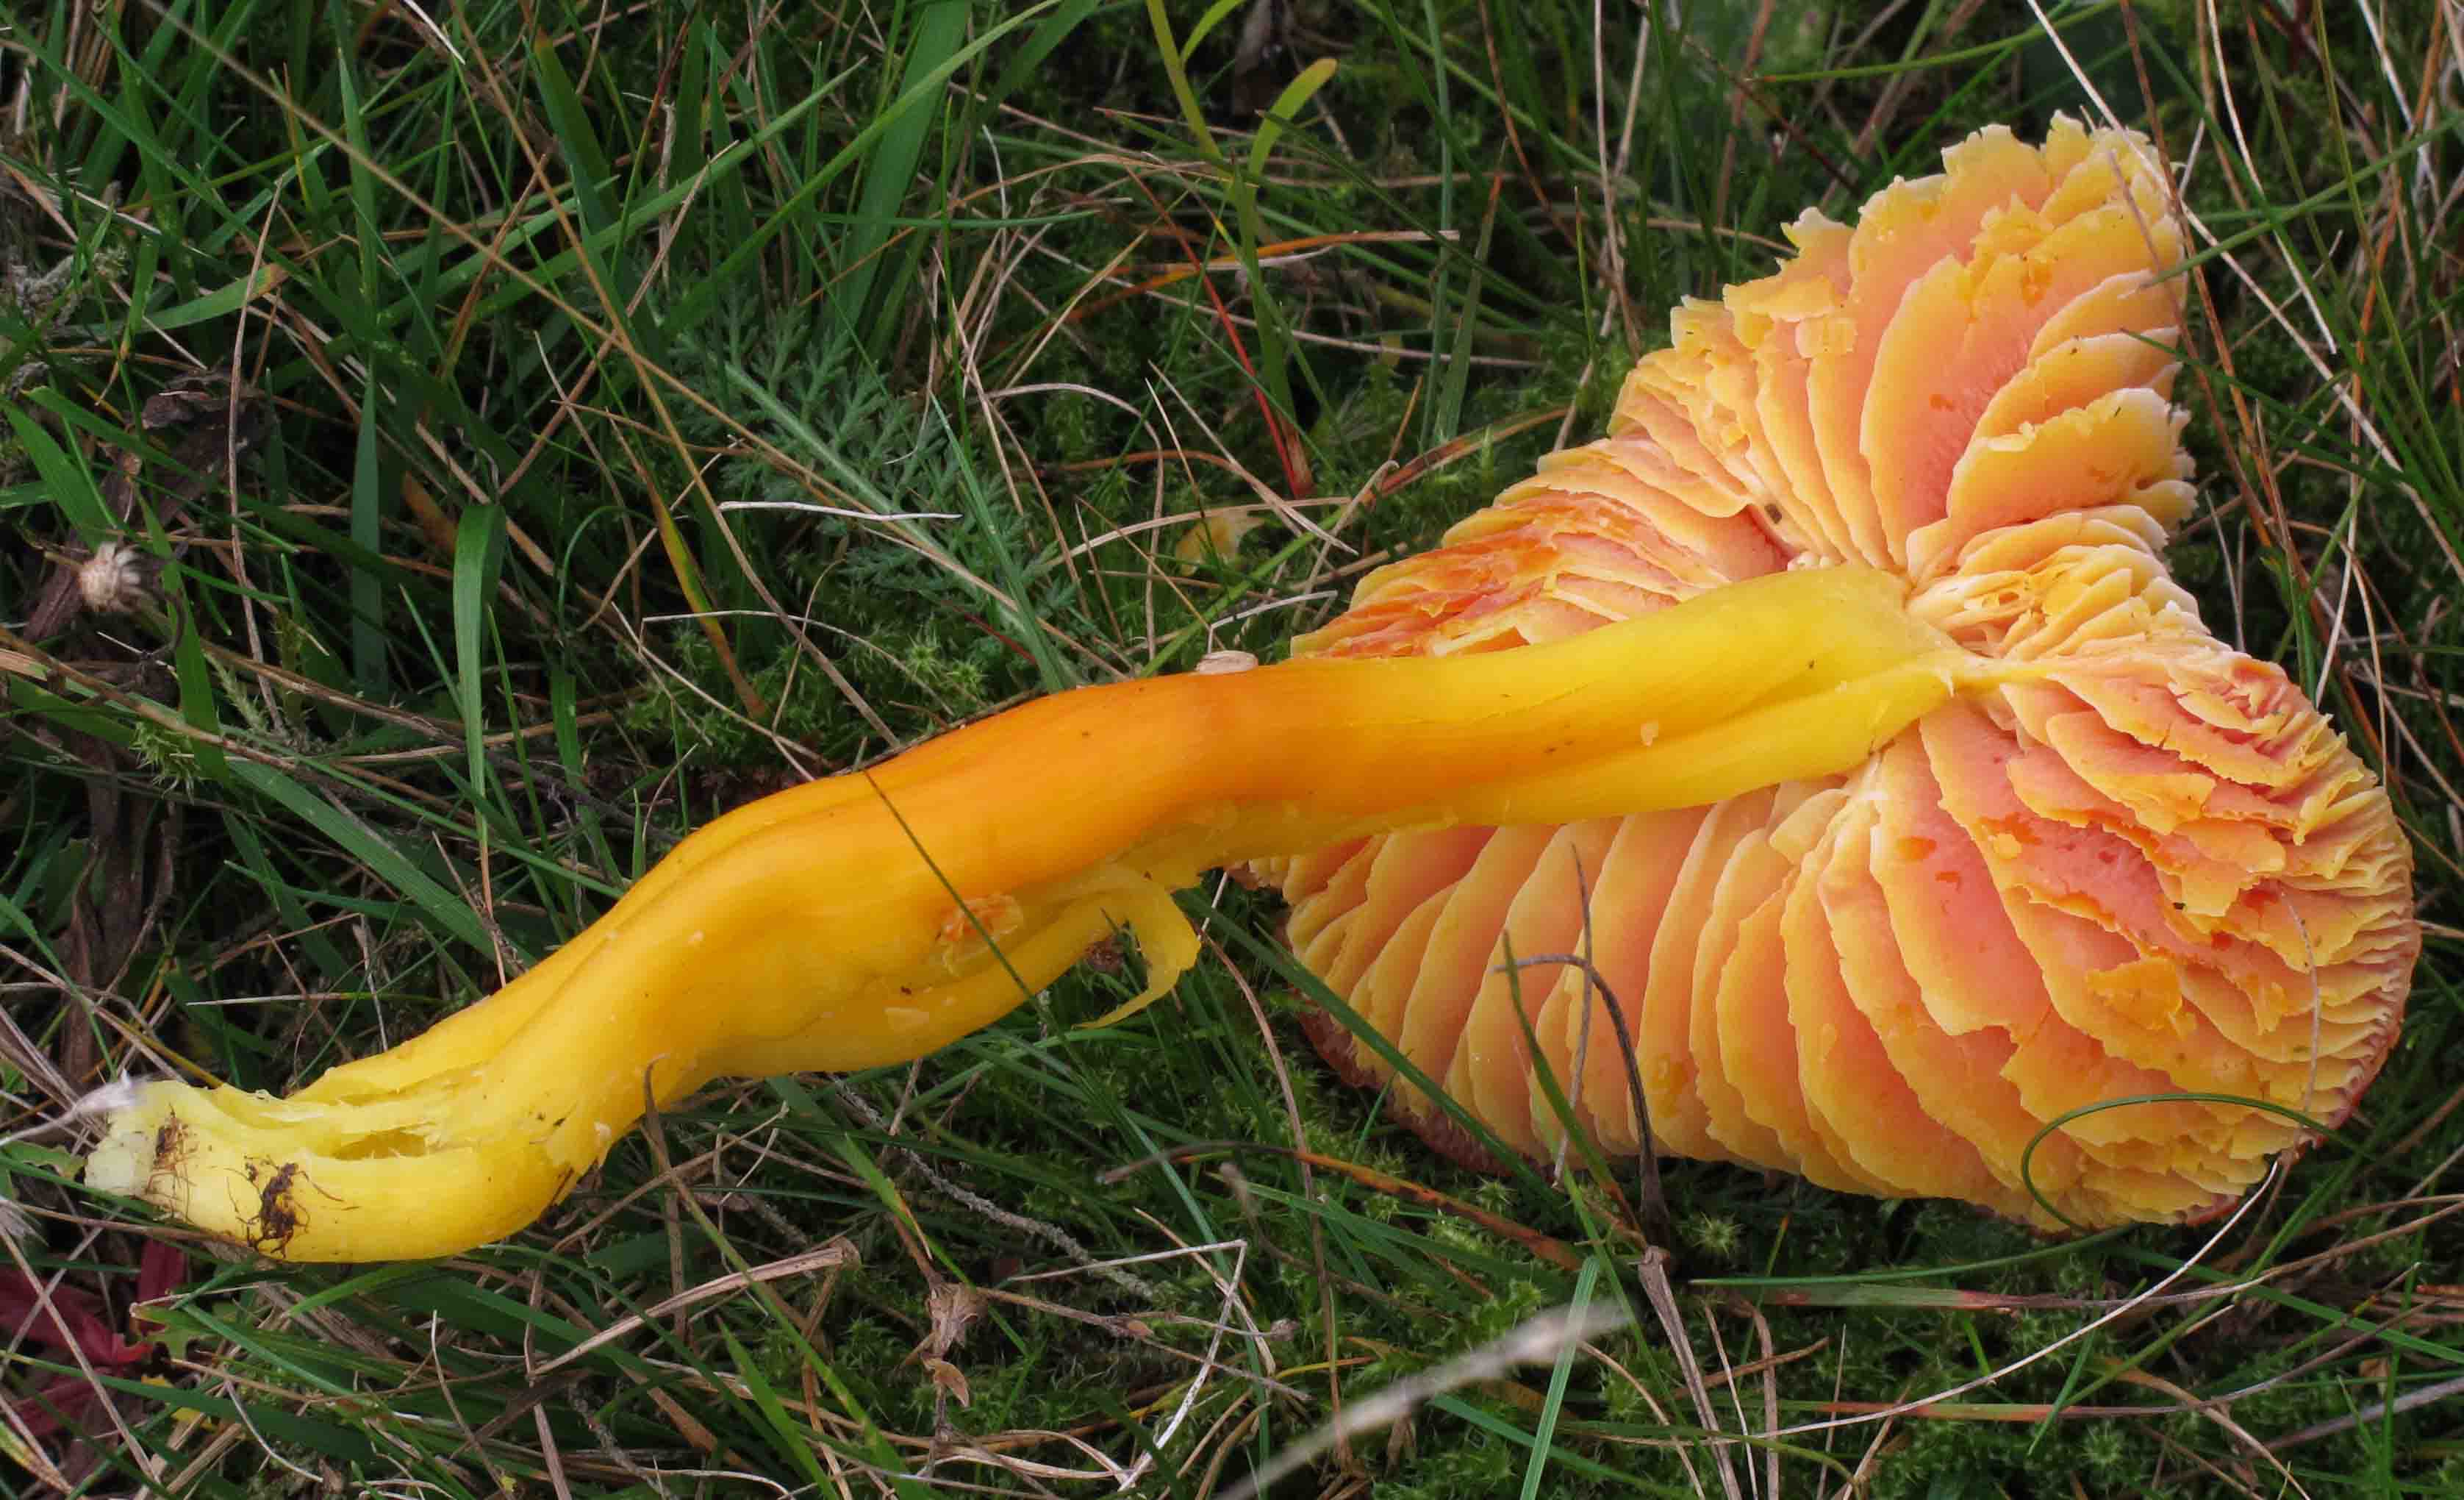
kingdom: Fungi
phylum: Basidiomycota
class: Agaricomycetes
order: Agaricales
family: Hygrophoraceae
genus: Hygrocybe
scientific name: Hygrocybe splendidissima
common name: knaldrød vokshat
